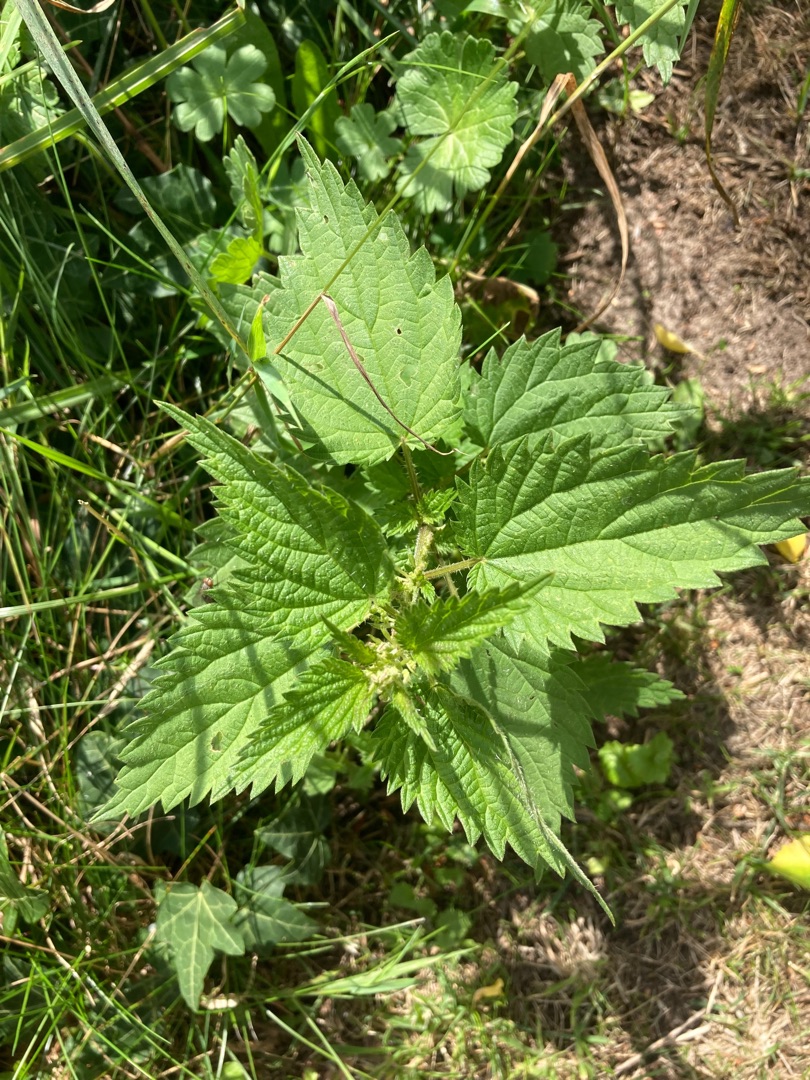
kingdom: Plantae
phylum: Tracheophyta
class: Magnoliopsida
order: Rosales
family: Urticaceae
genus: Urtica
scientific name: Urtica dioica
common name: Stor nælde
